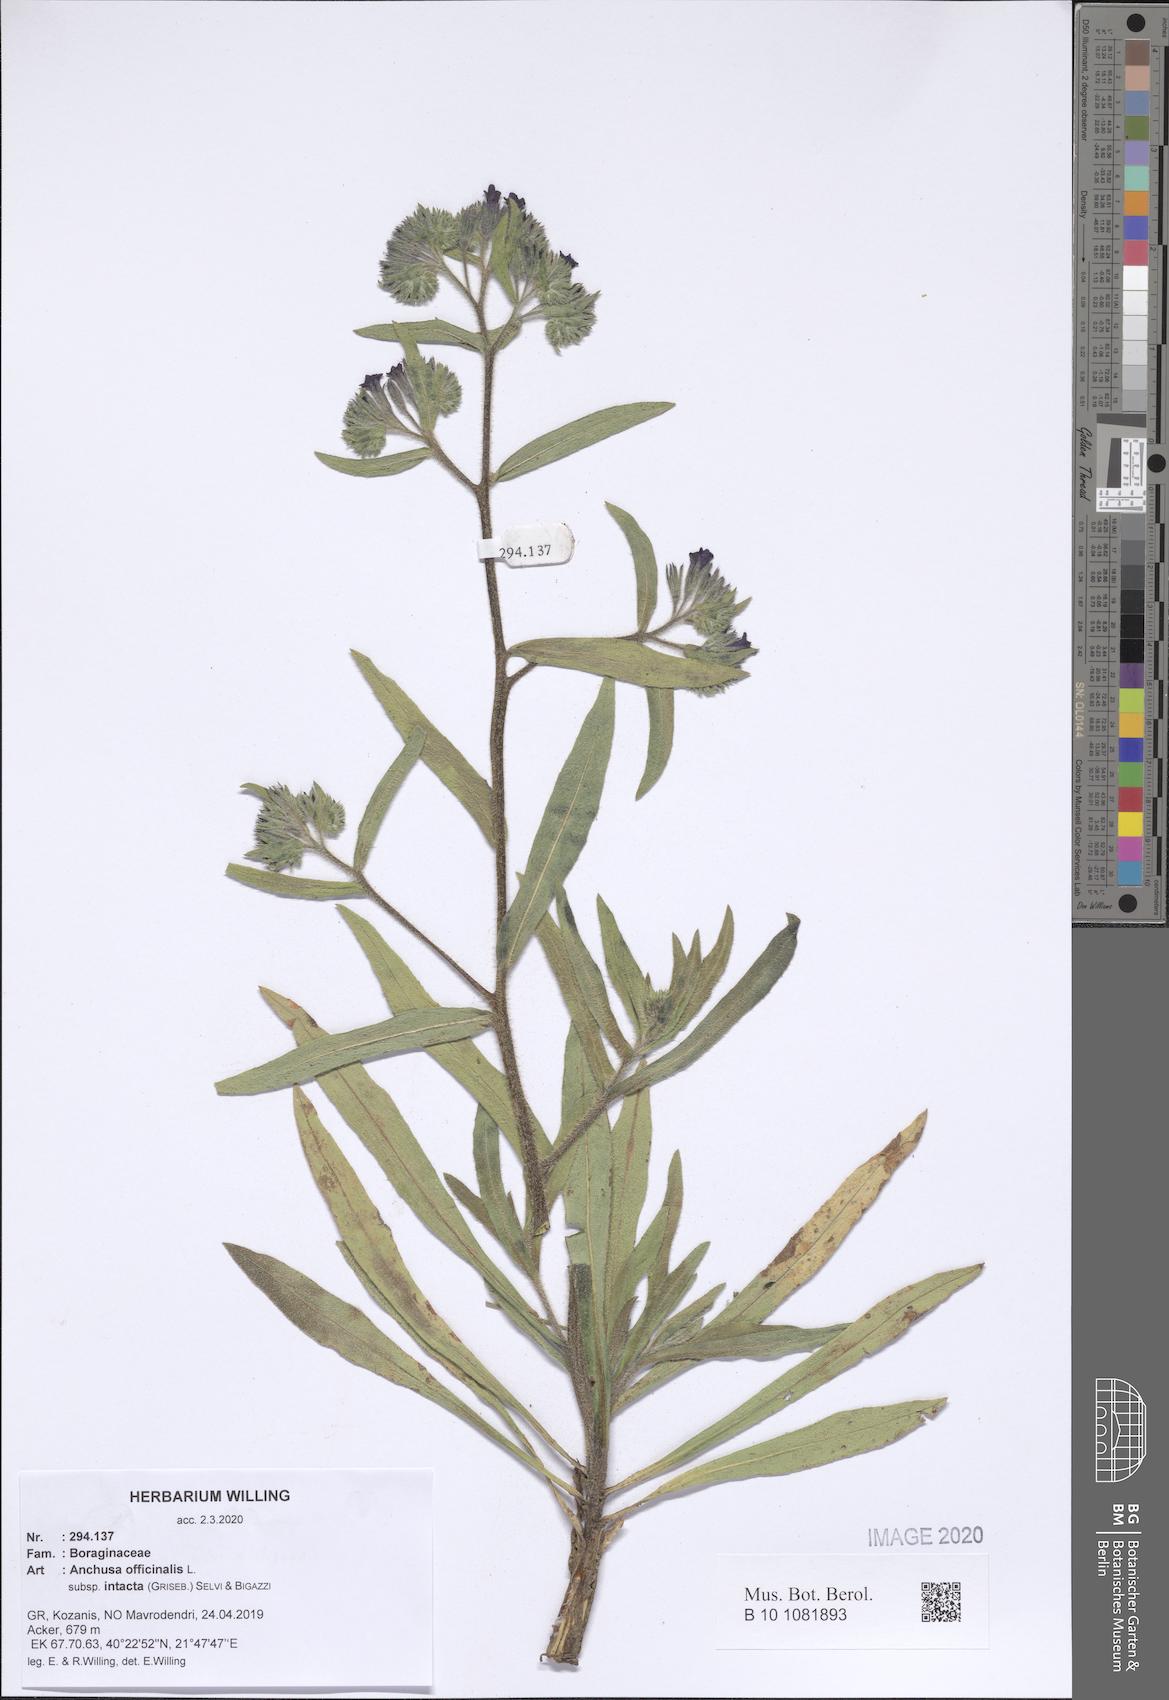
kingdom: Plantae
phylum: Tracheophyta
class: Magnoliopsida
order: Boraginales
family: Boraginaceae
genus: Anchusa
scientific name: Anchusa officinalis
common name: Alkanet
